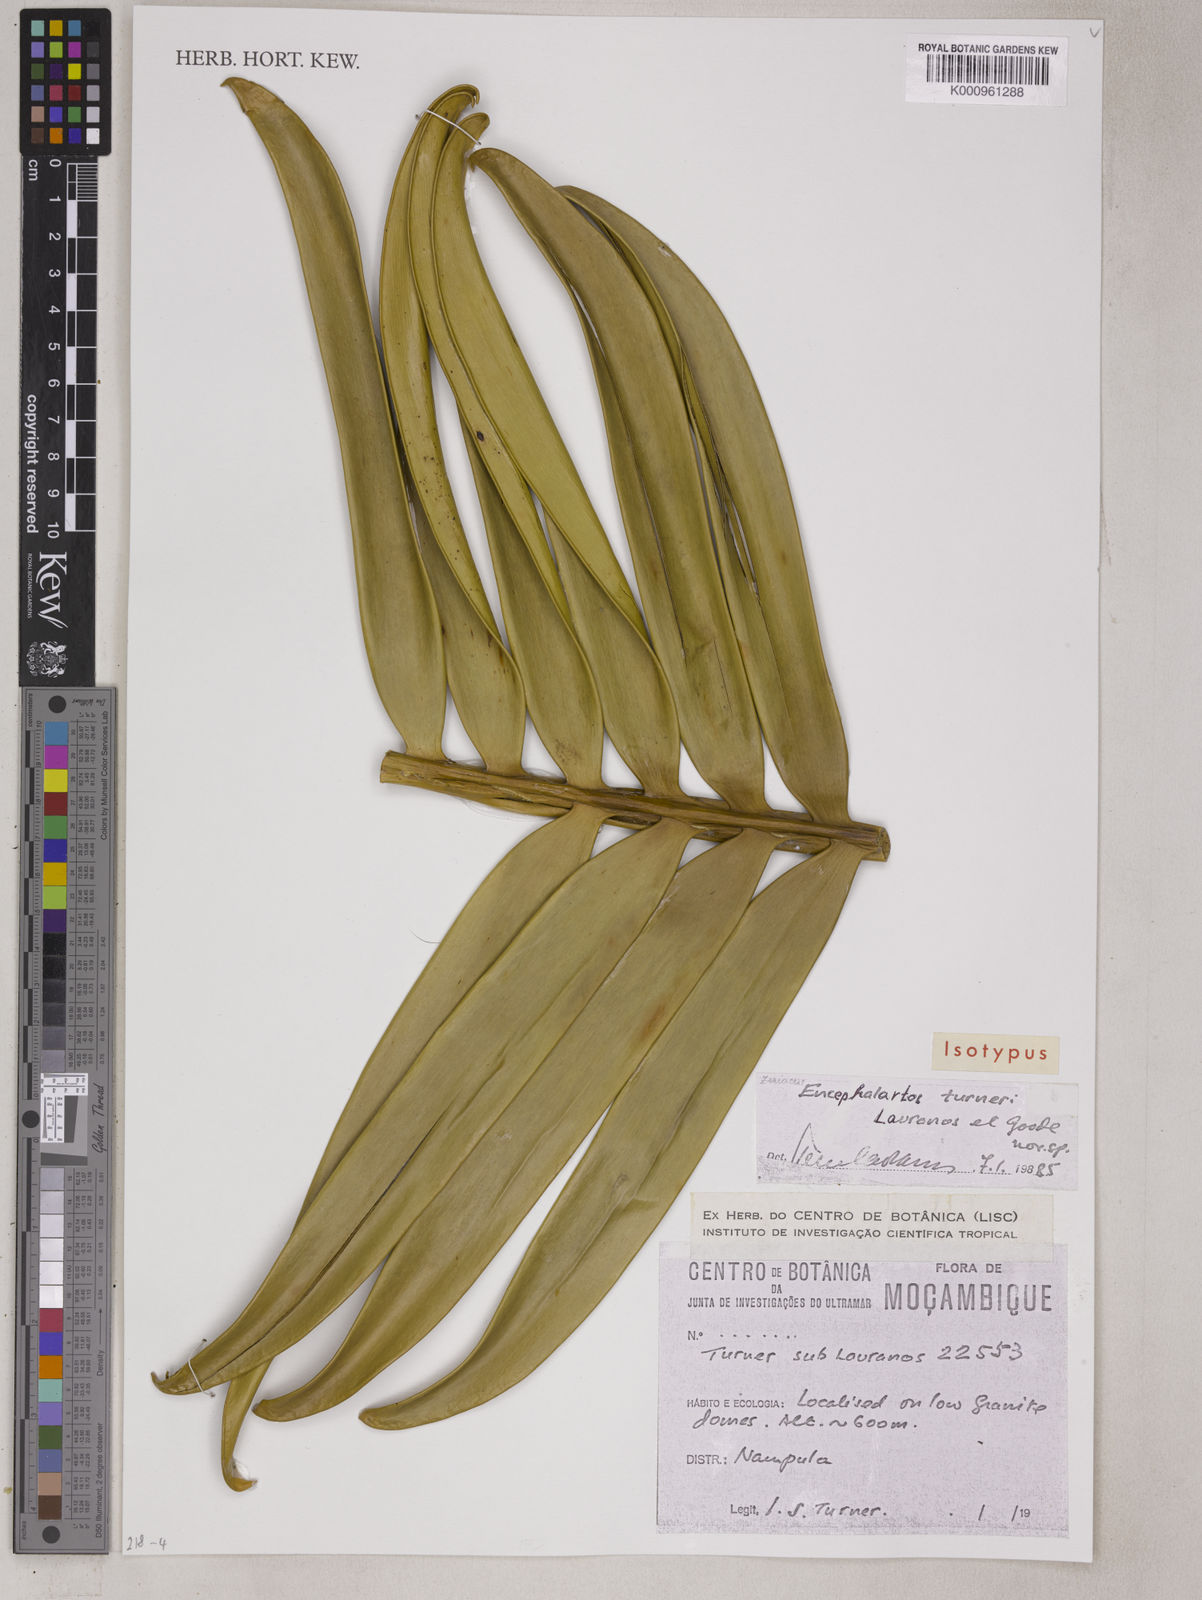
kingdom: Plantae
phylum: Tracheophyta
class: Cycadopsida
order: Cycadales
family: Zamiaceae
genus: Encephalartos
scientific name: Encephalartos turneri
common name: Turner's cycad
